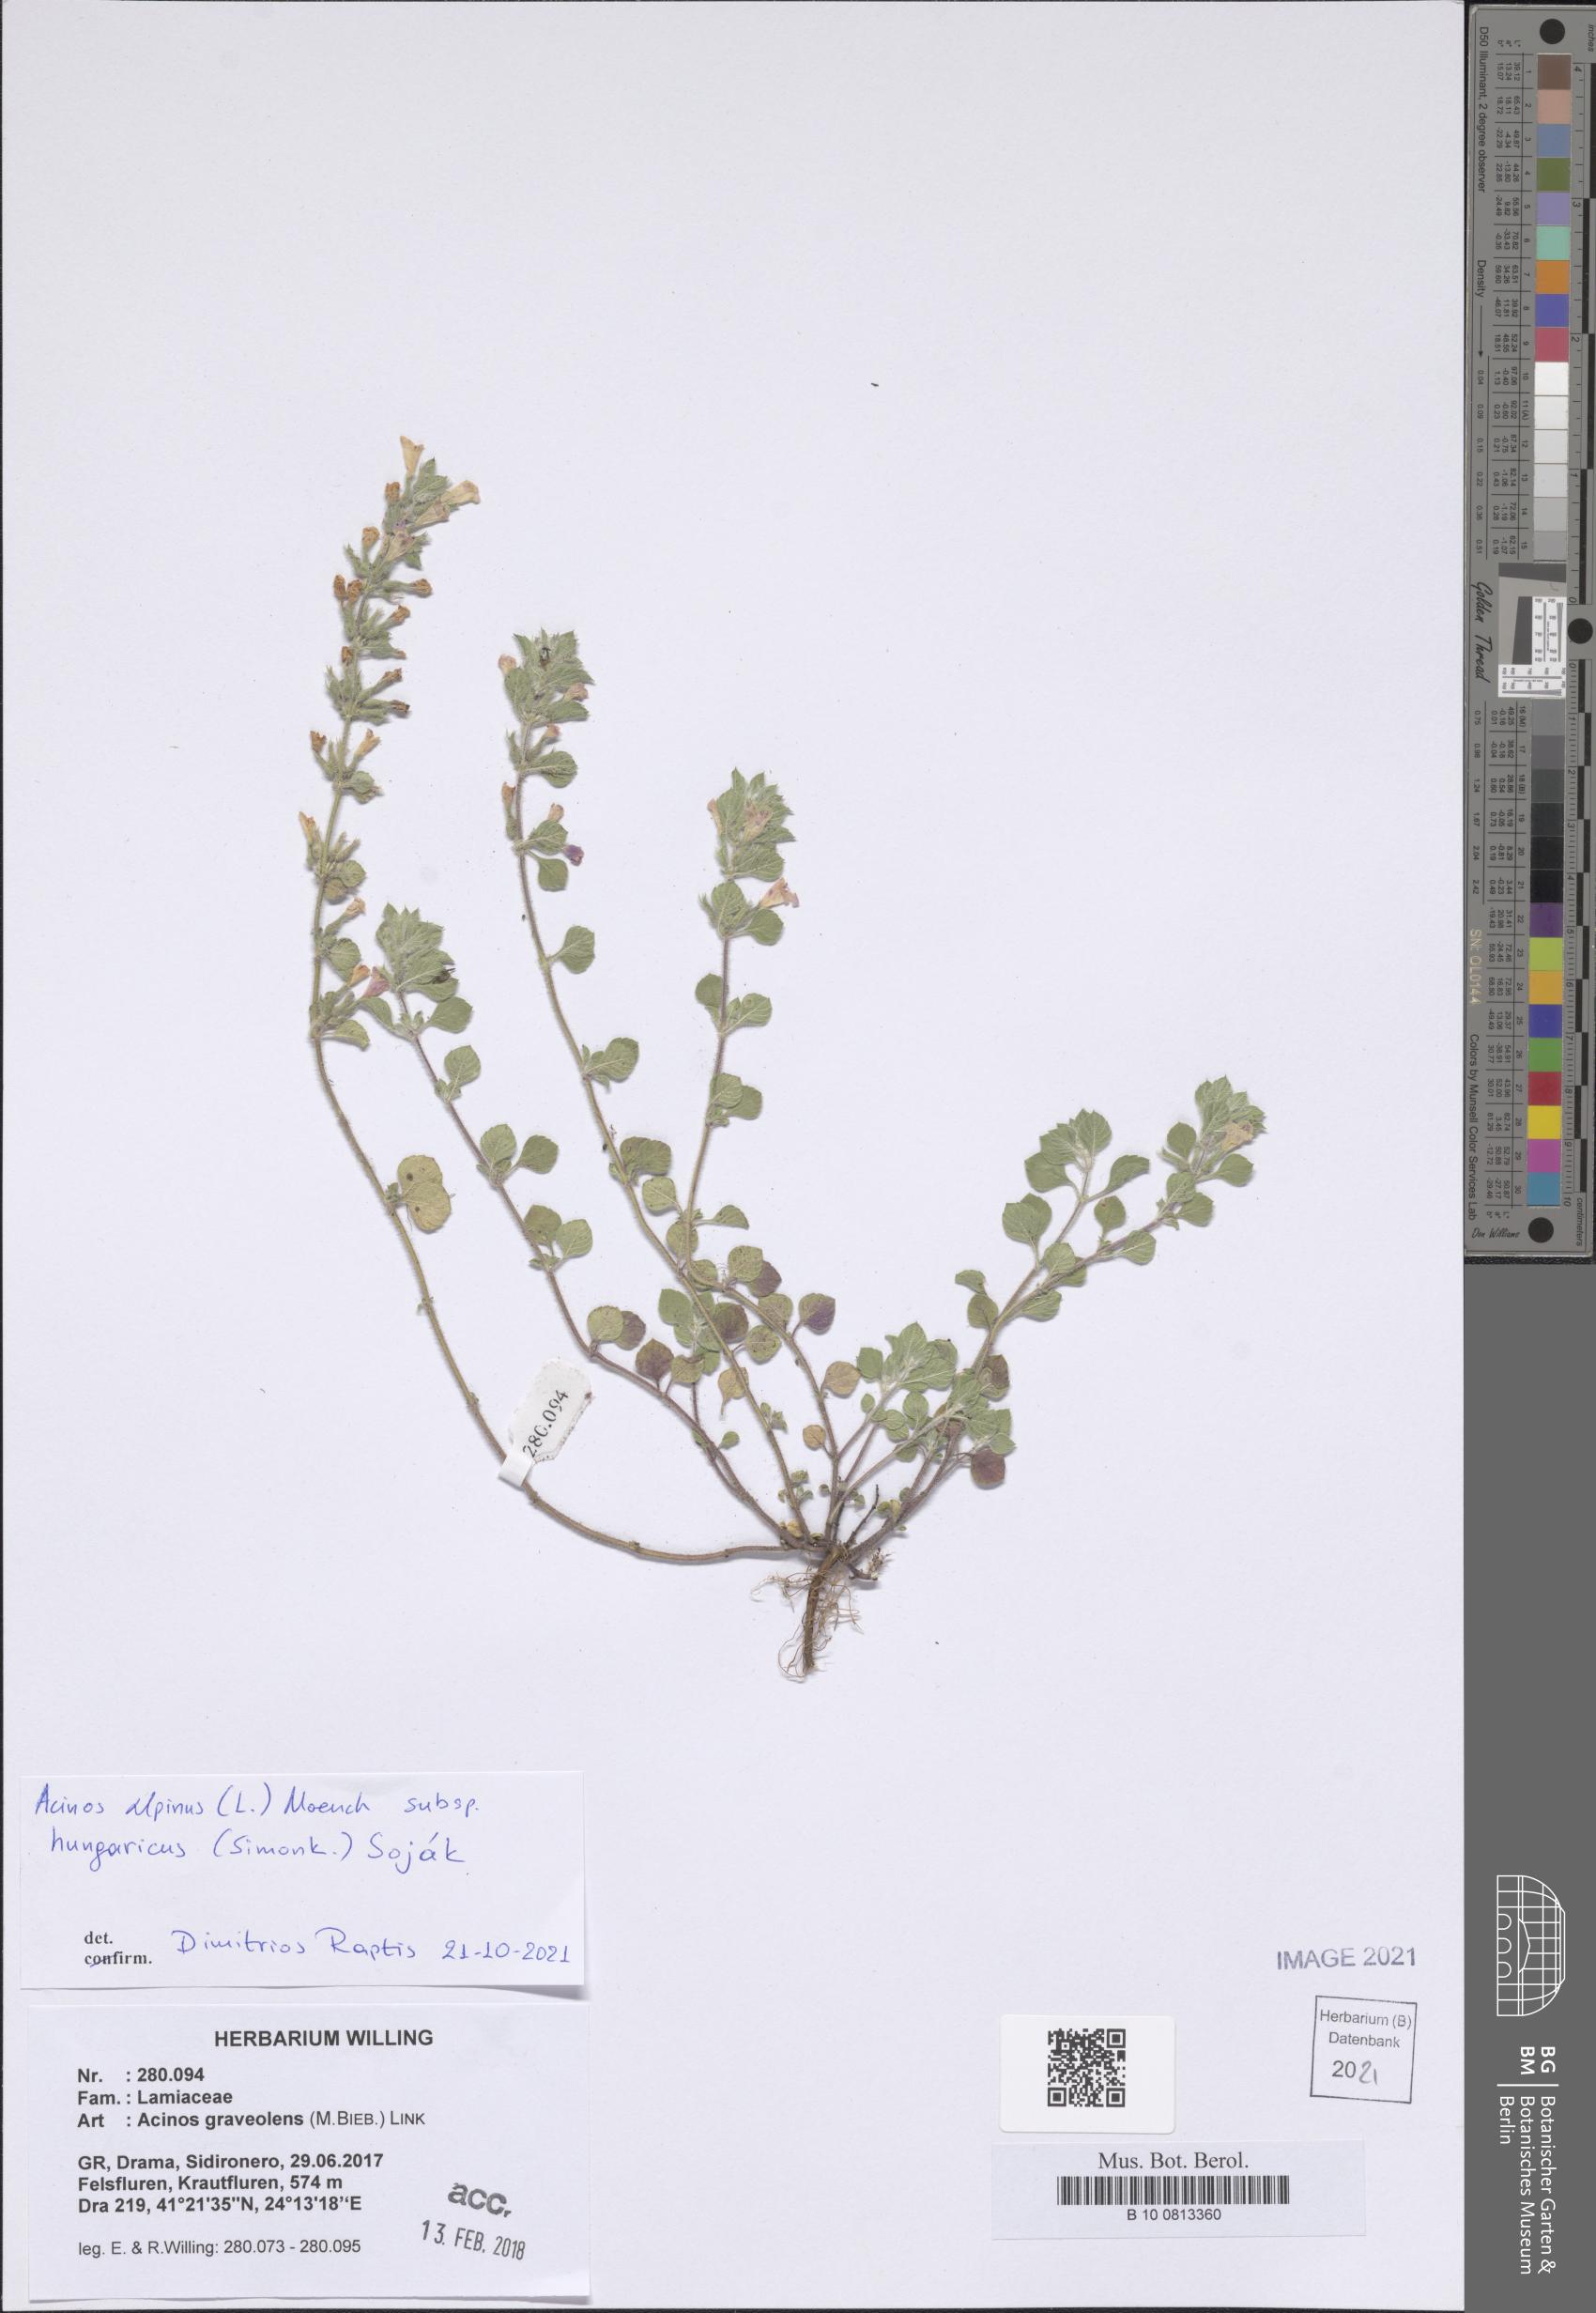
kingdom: Plantae
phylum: Tracheophyta
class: Magnoliopsida
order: Lamiales
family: Lamiaceae
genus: Clinopodium
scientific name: Clinopodium alpinum
